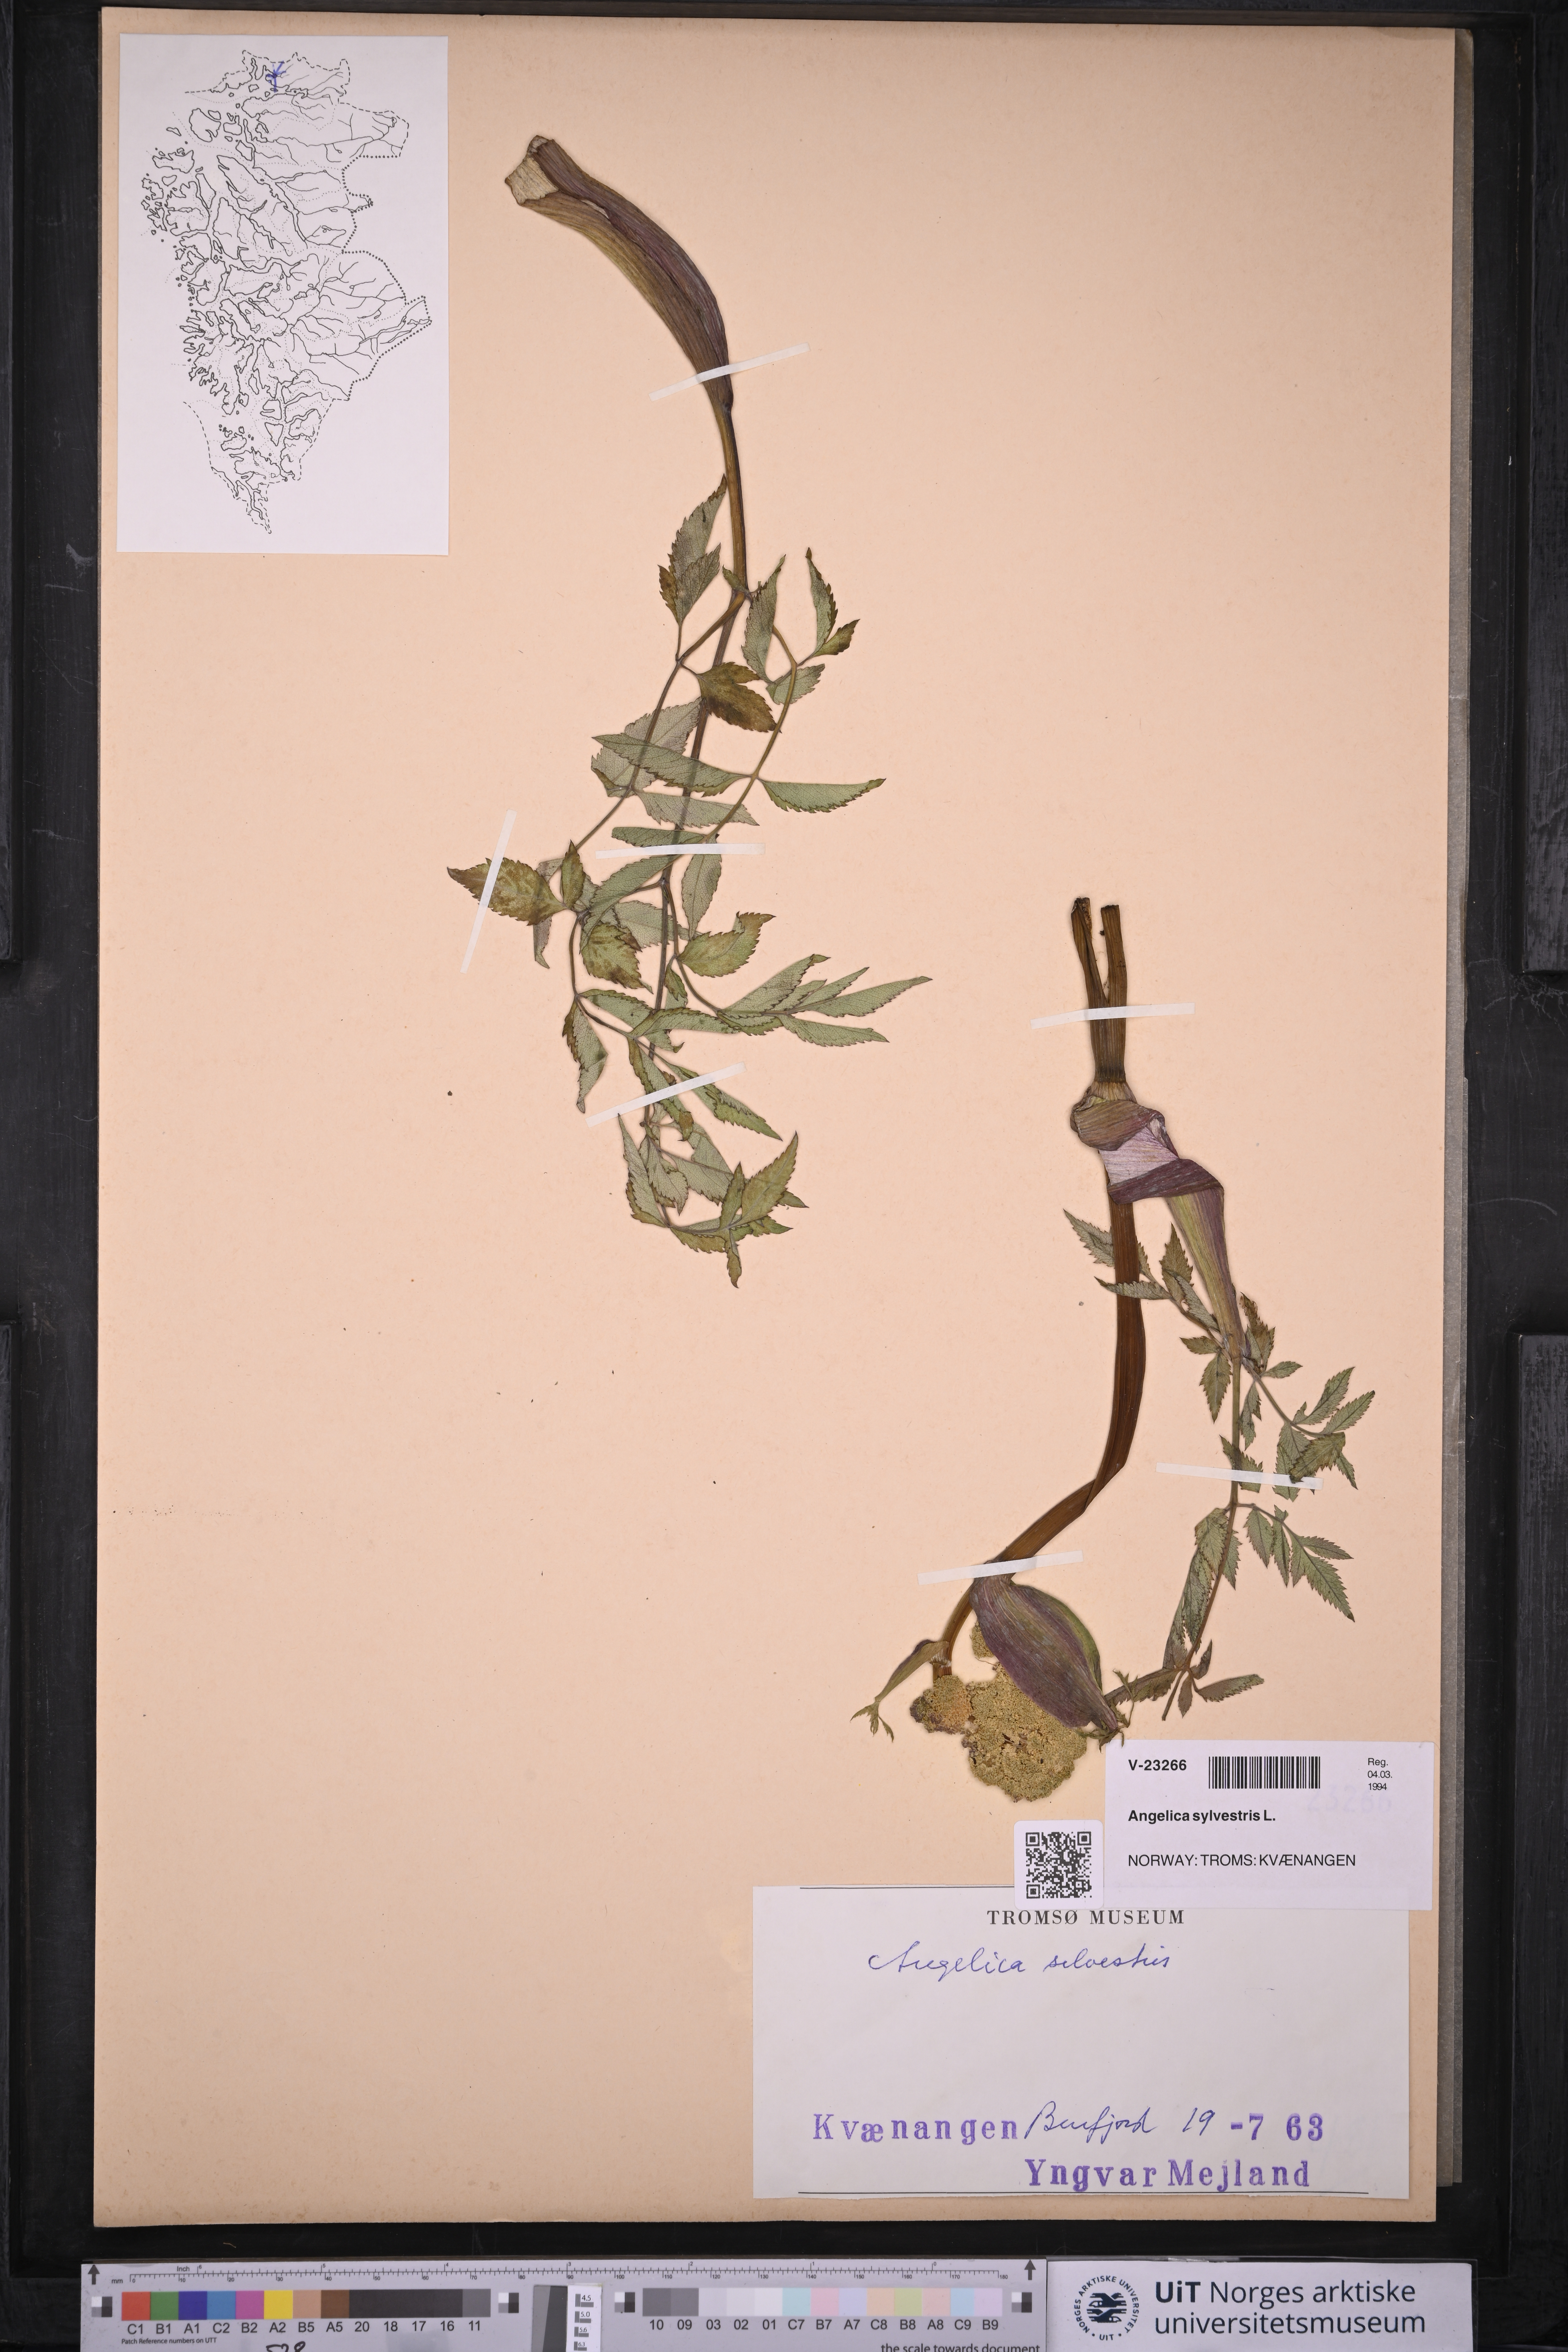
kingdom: Plantae
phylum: Tracheophyta
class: Magnoliopsida
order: Apiales
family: Apiaceae
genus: Angelica
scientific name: Angelica sylvestris
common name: Wild angelica
